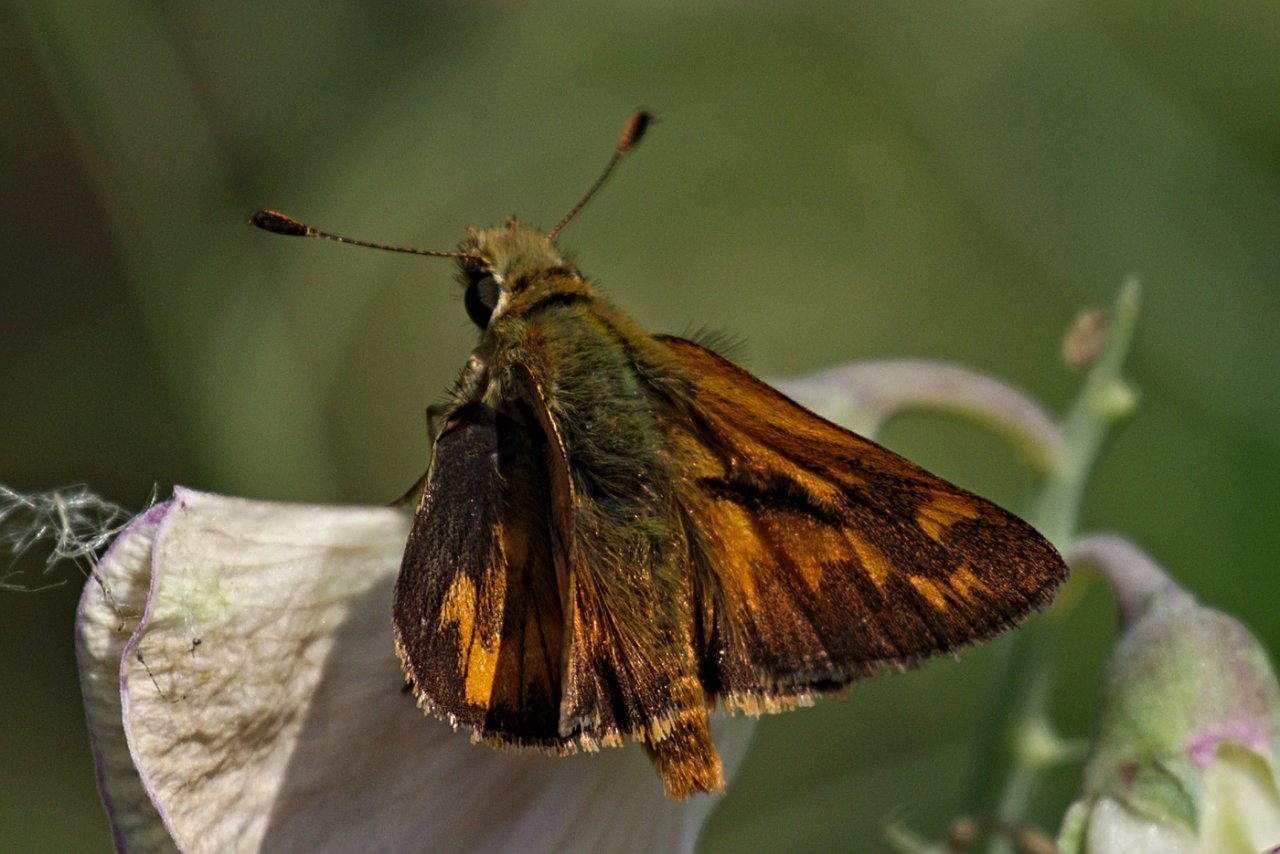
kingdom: Animalia
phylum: Arthropoda
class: Insecta
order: Lepidoptera
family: Hesperiidae
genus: Ochlodes
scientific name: Ochlodes sylvanoides
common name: Woodland Skipper
